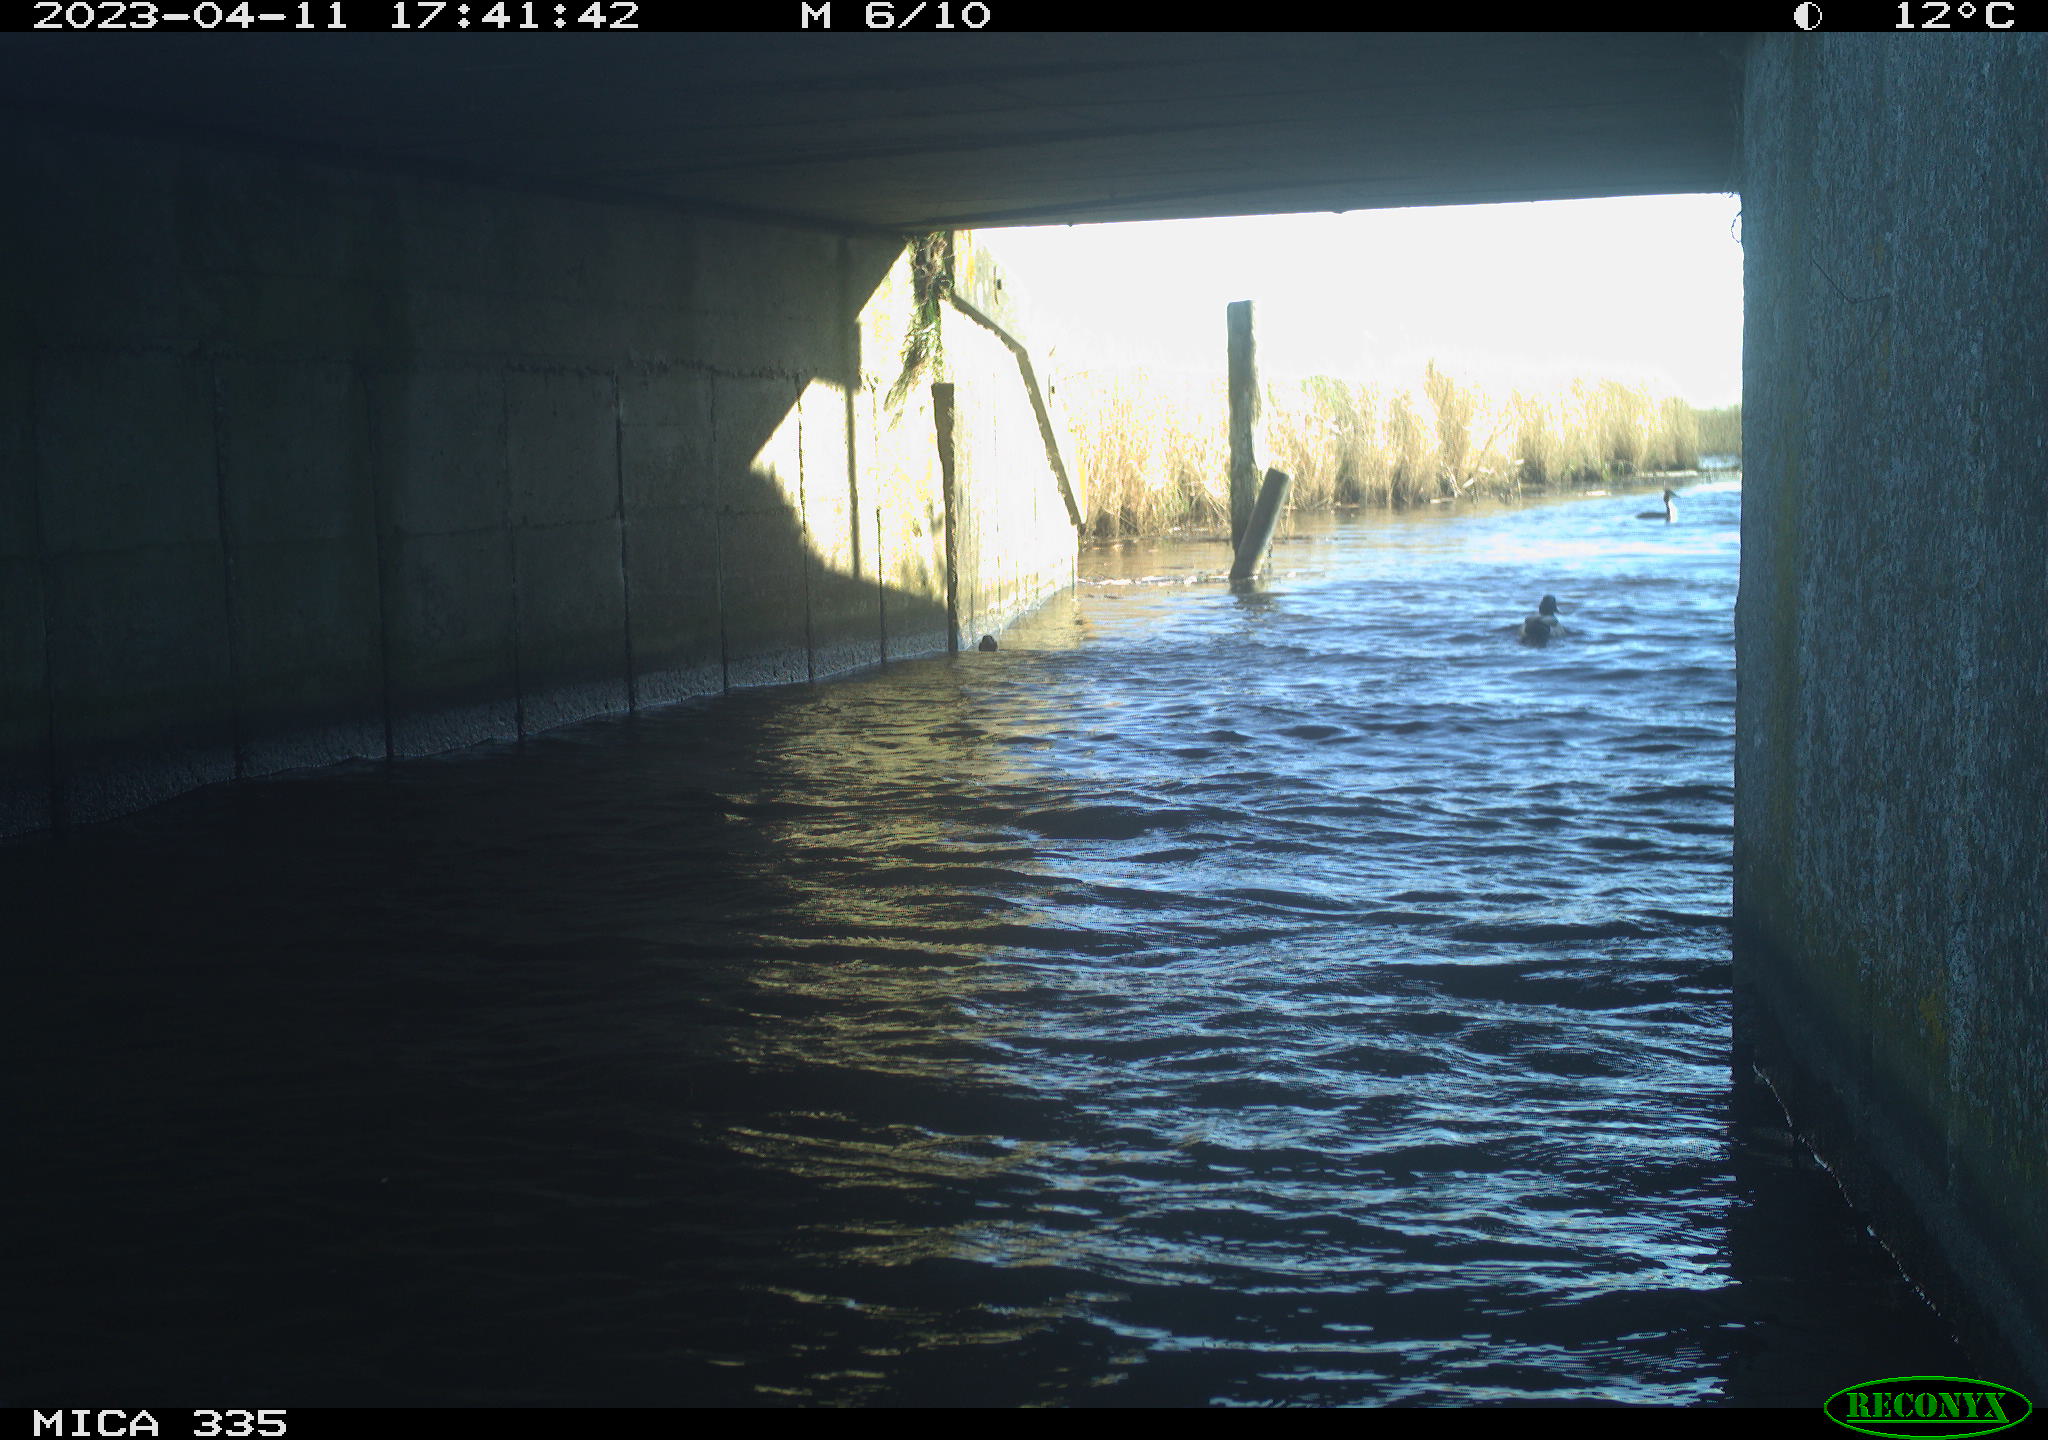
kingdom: Animalia
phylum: Chordata
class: Aves
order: Anseriformes
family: Anatidae
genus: Anas
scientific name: Anas
